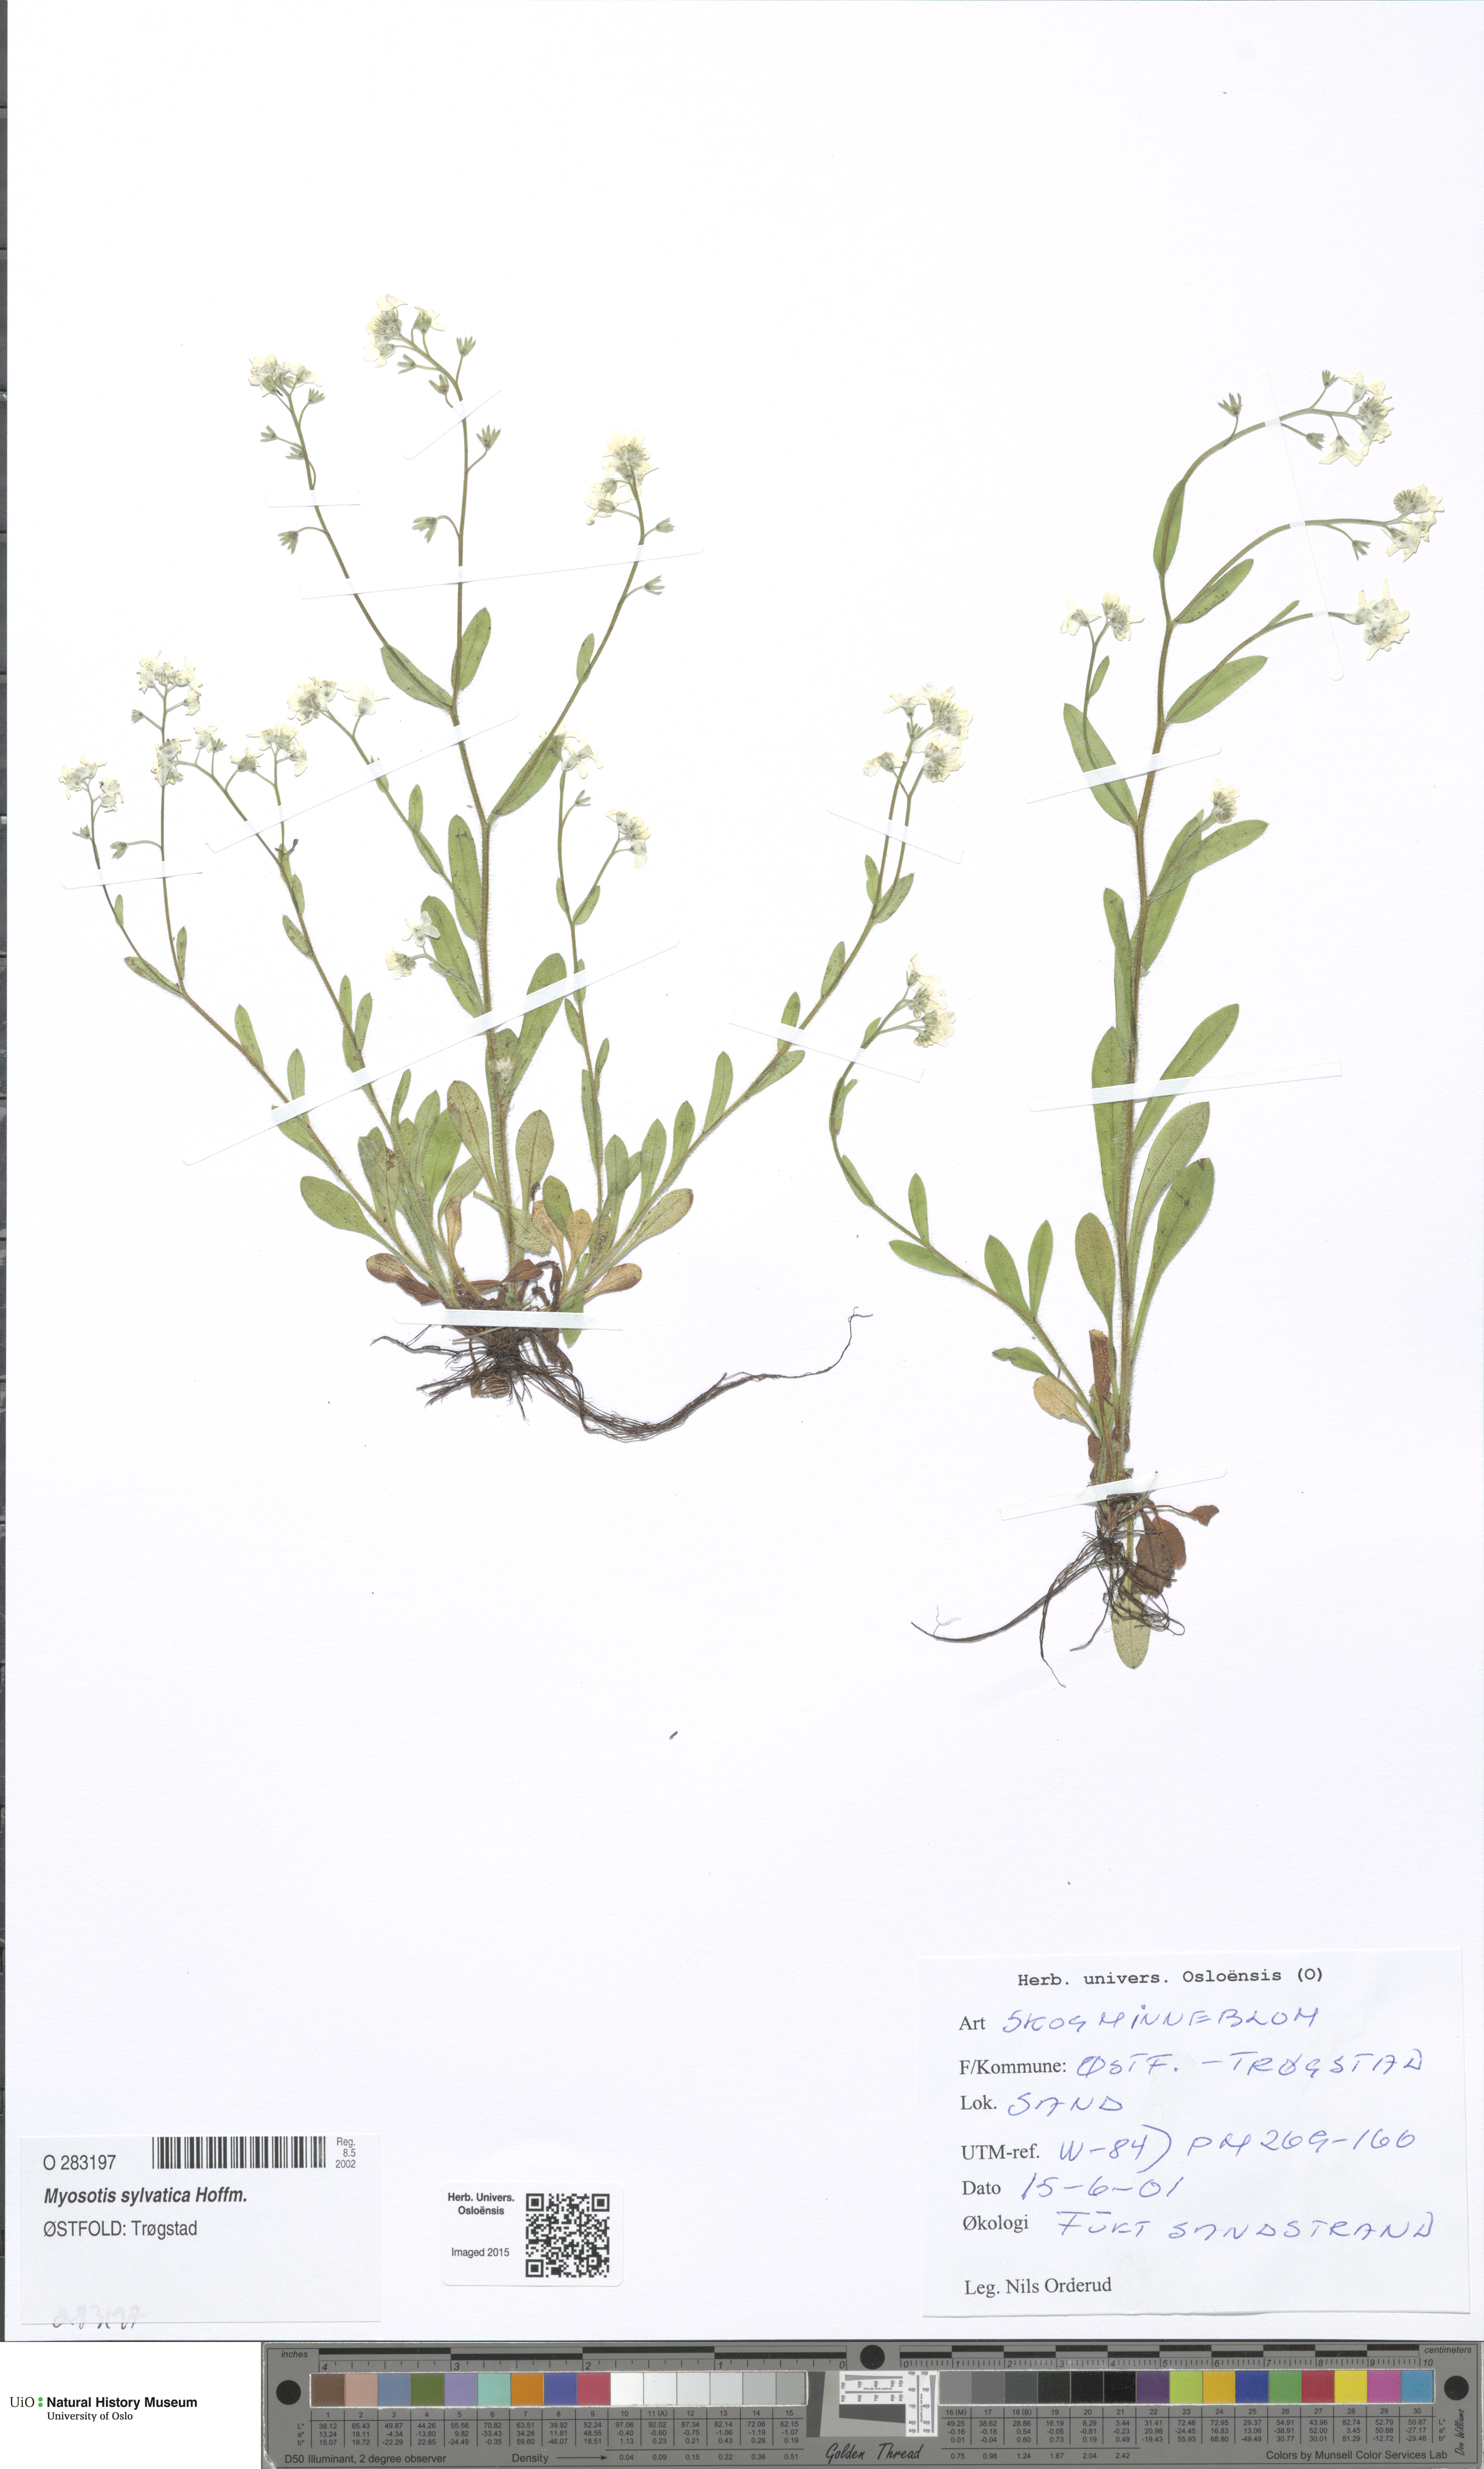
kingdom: Plantae
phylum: Tracheophyta
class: Magnoliopsida
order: Boraginales
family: Boraginaceae
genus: Myosotis
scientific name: Myosotis sylvatica
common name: Wood forget-me-not
